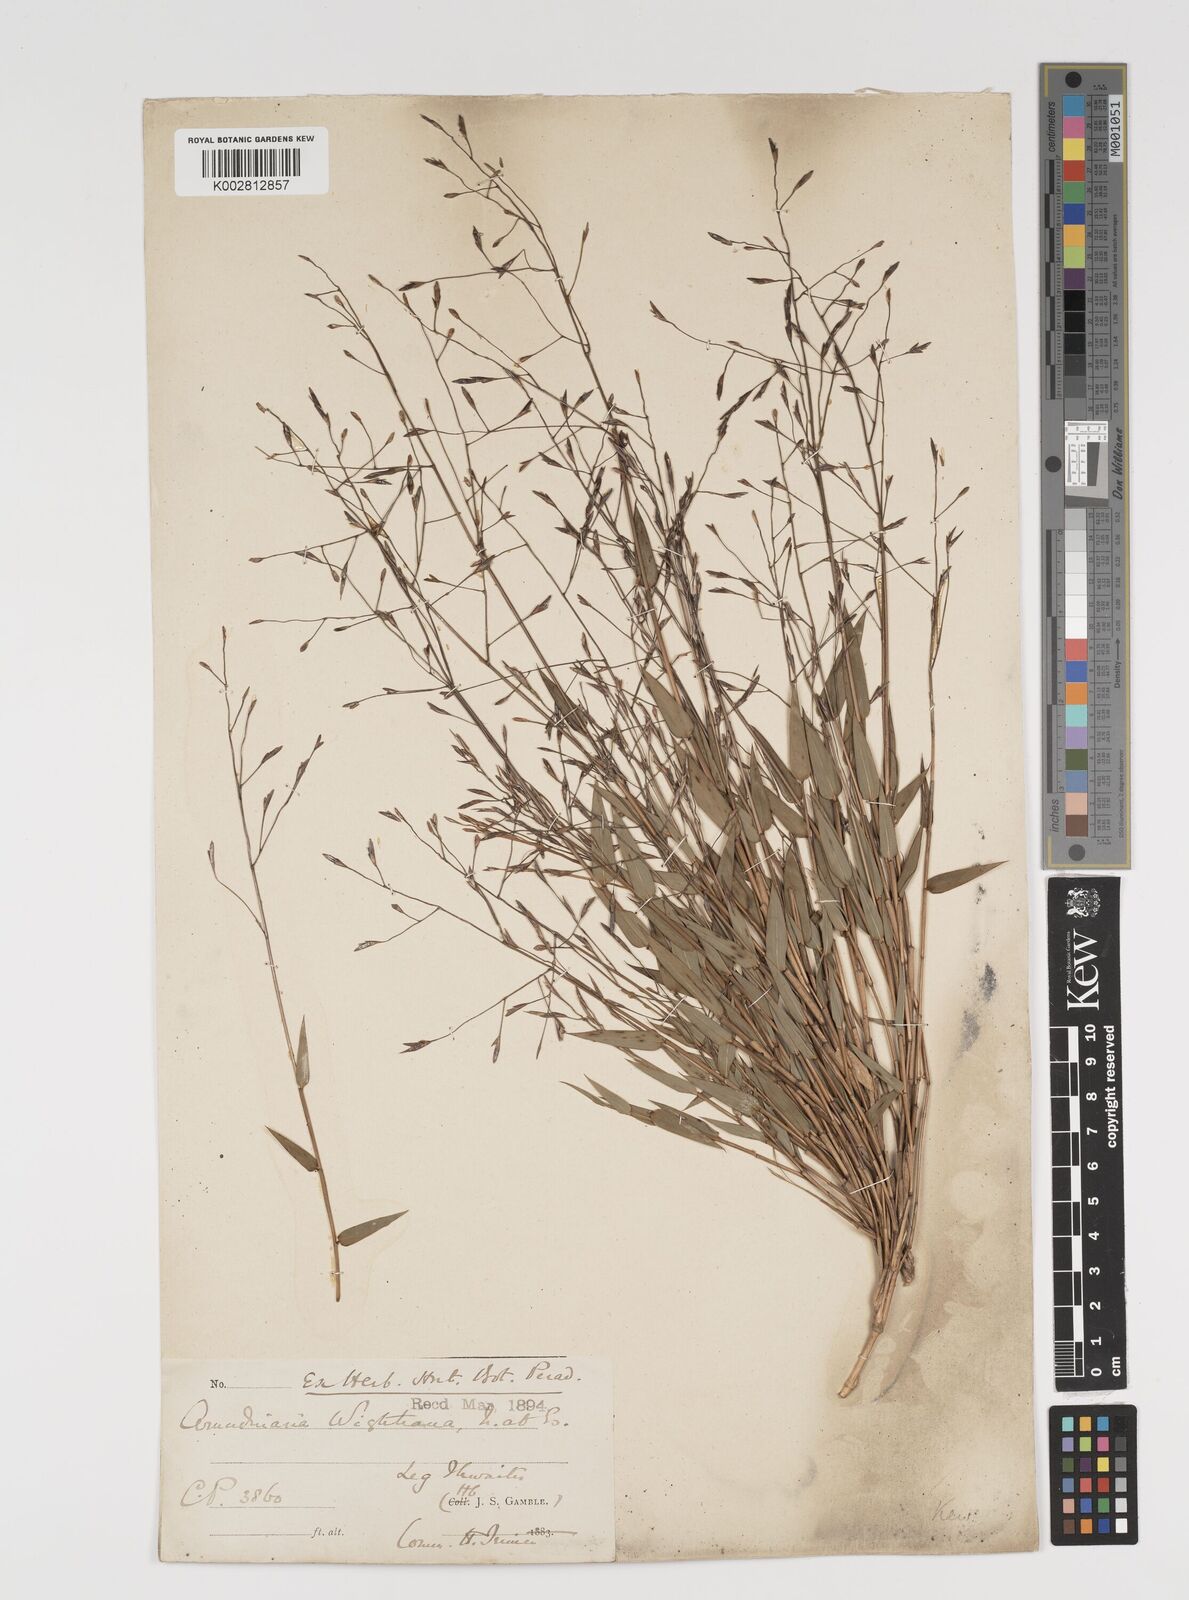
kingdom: Plantae
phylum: Tracheophyta
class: Liliopsida
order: Poales
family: Poaceae
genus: Kuruna
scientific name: Kuruna scandens
